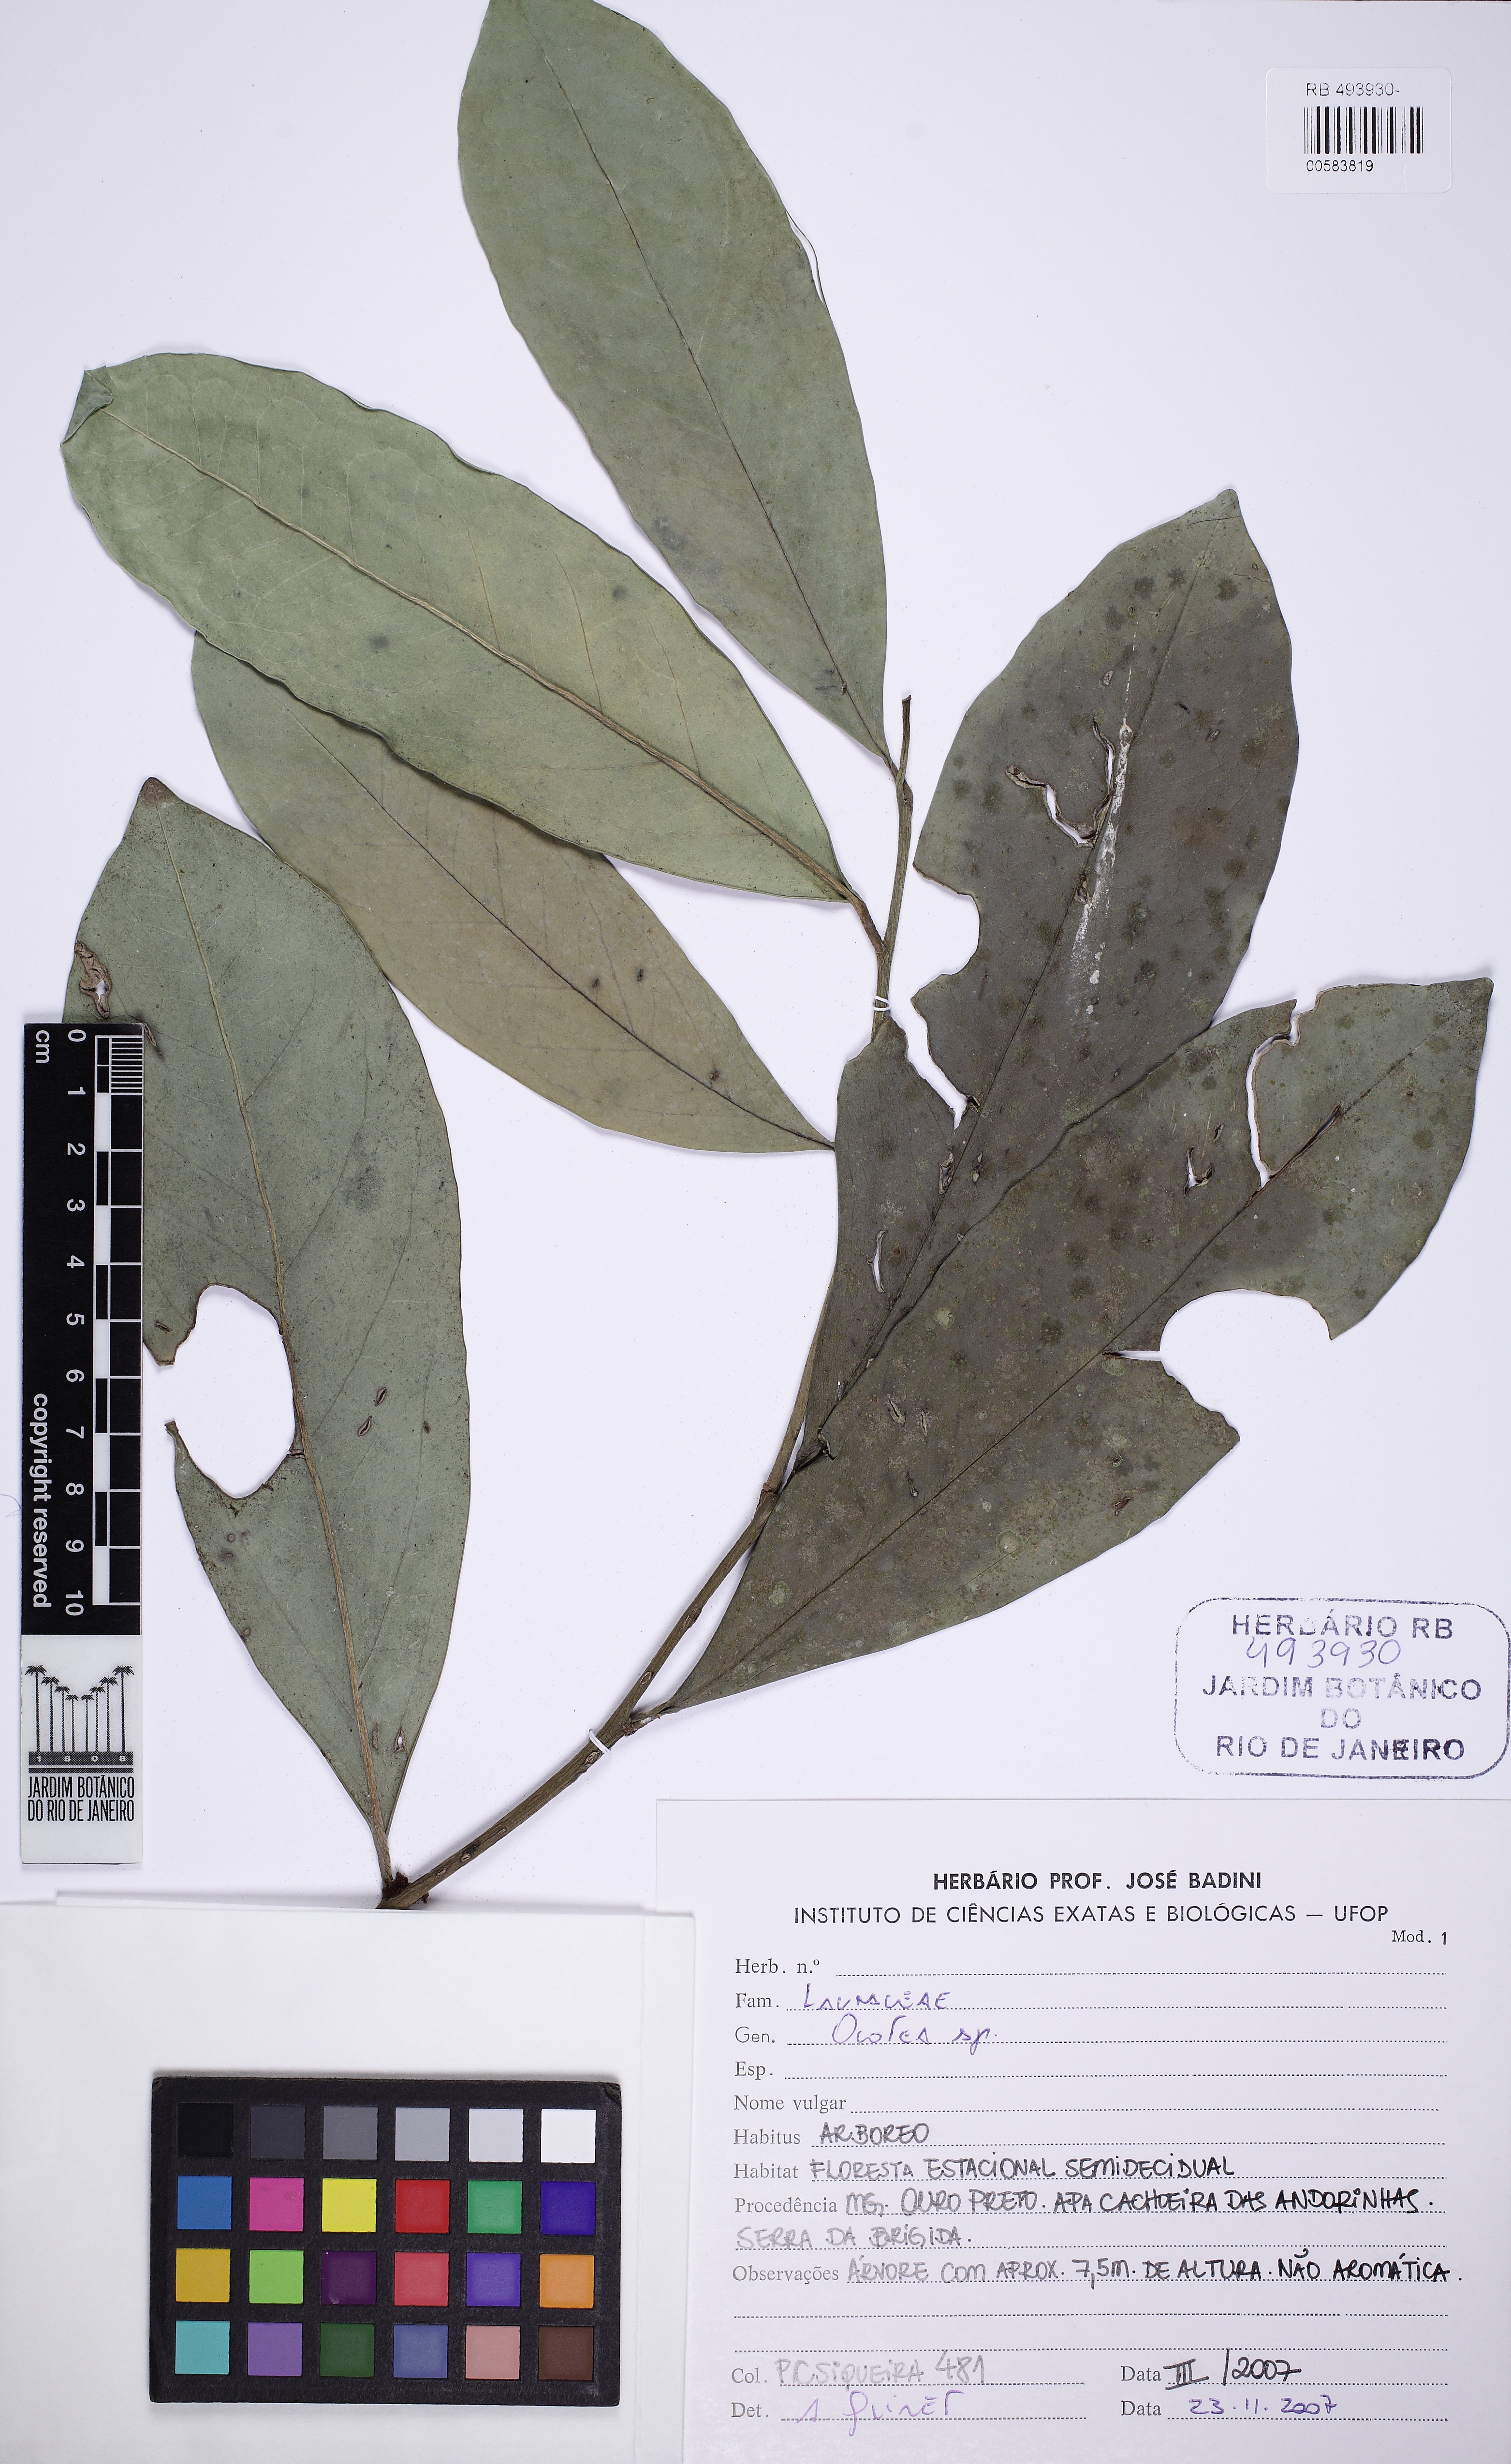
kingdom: Plantae
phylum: Tracheophyta
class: Magnoliopsida
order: Laurales
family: Lauraceae
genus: Ocotea
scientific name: Ocotea
